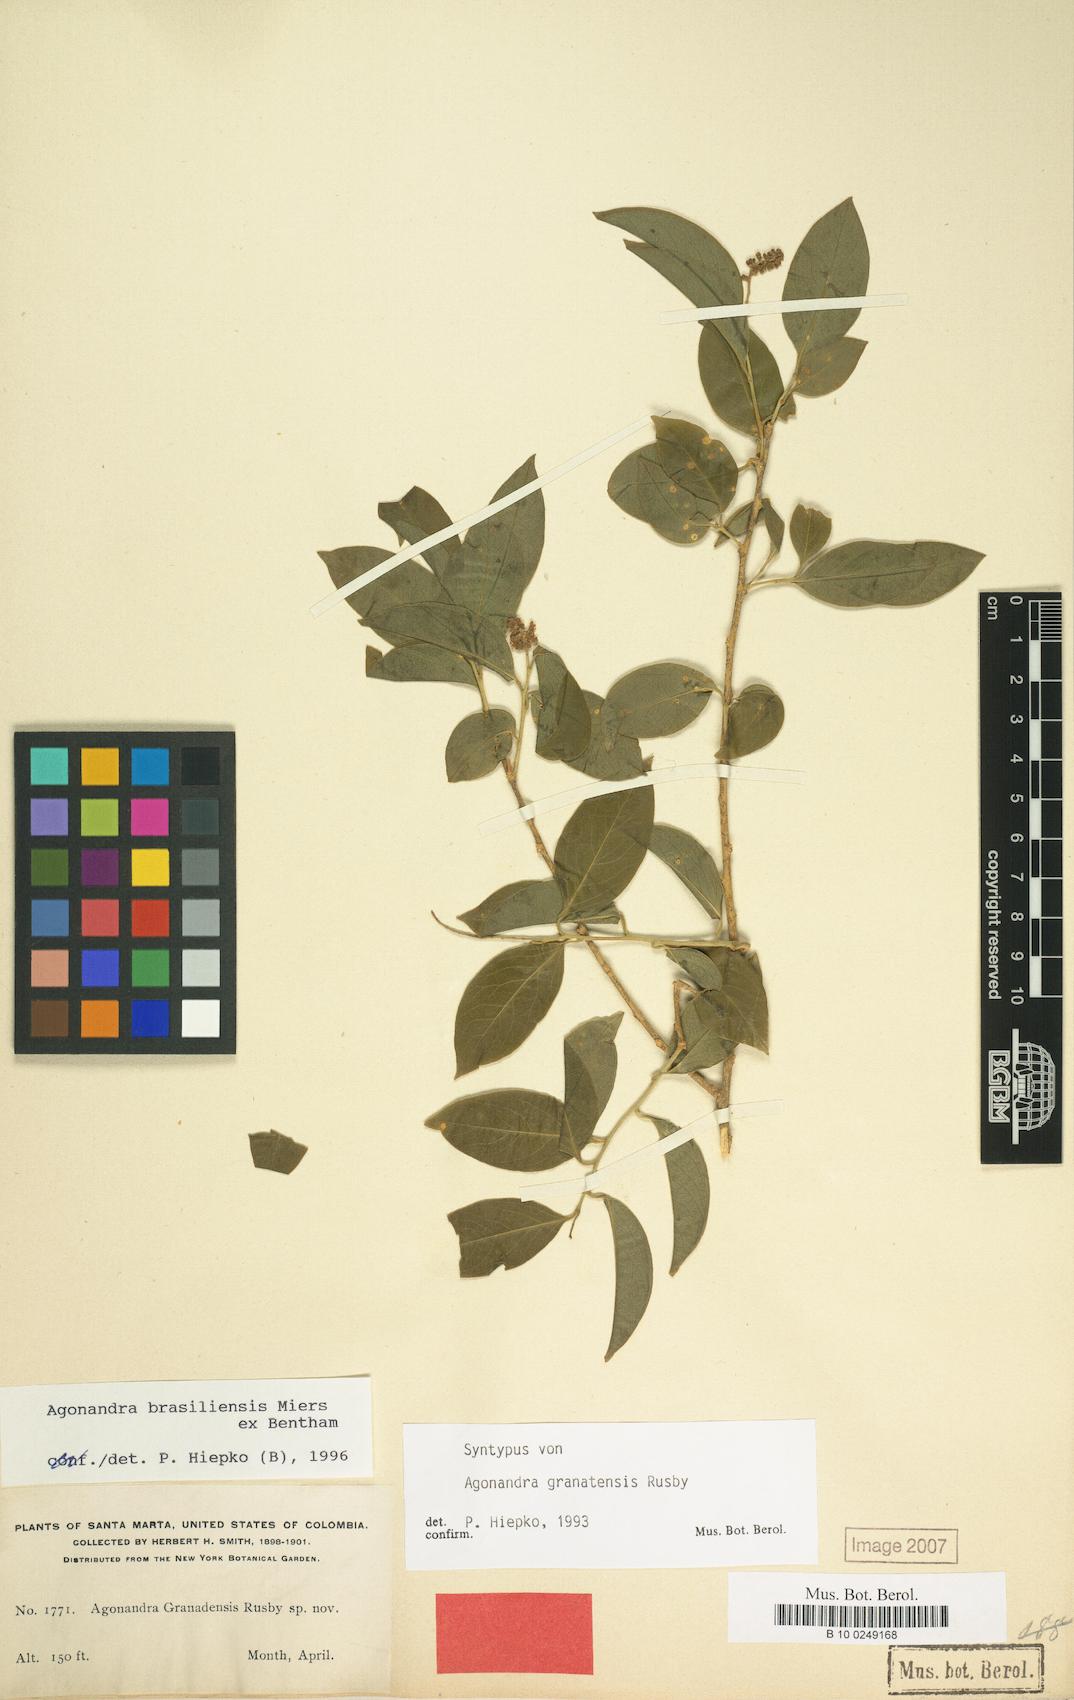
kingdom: Plantae
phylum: Tracheophyta
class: Magnoliopsida
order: Santalales
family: Opiliaceae
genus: Agonandra
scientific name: Agonandra brasiliensis
